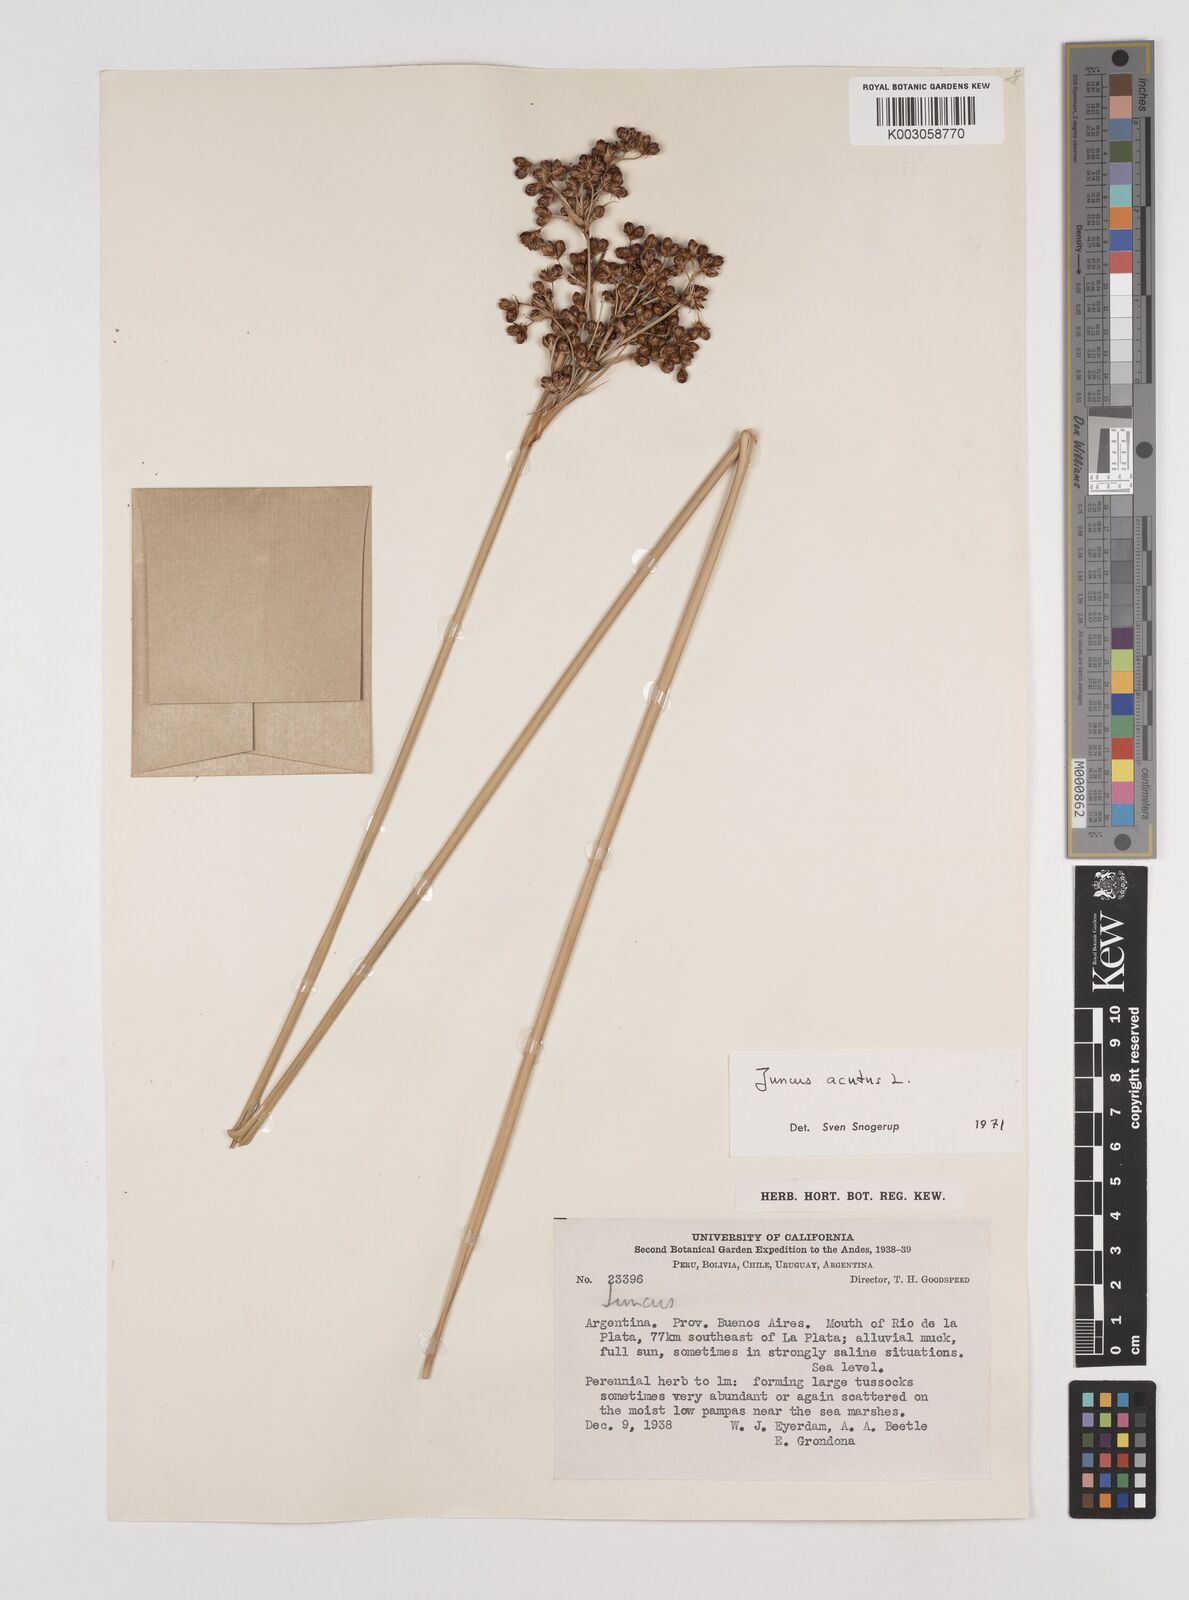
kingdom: Plantae
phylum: Tracheophyta
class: Liliopsida
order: Poales
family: Juncaceae
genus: Juncus
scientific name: Juncus acutus
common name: Sharp rush
